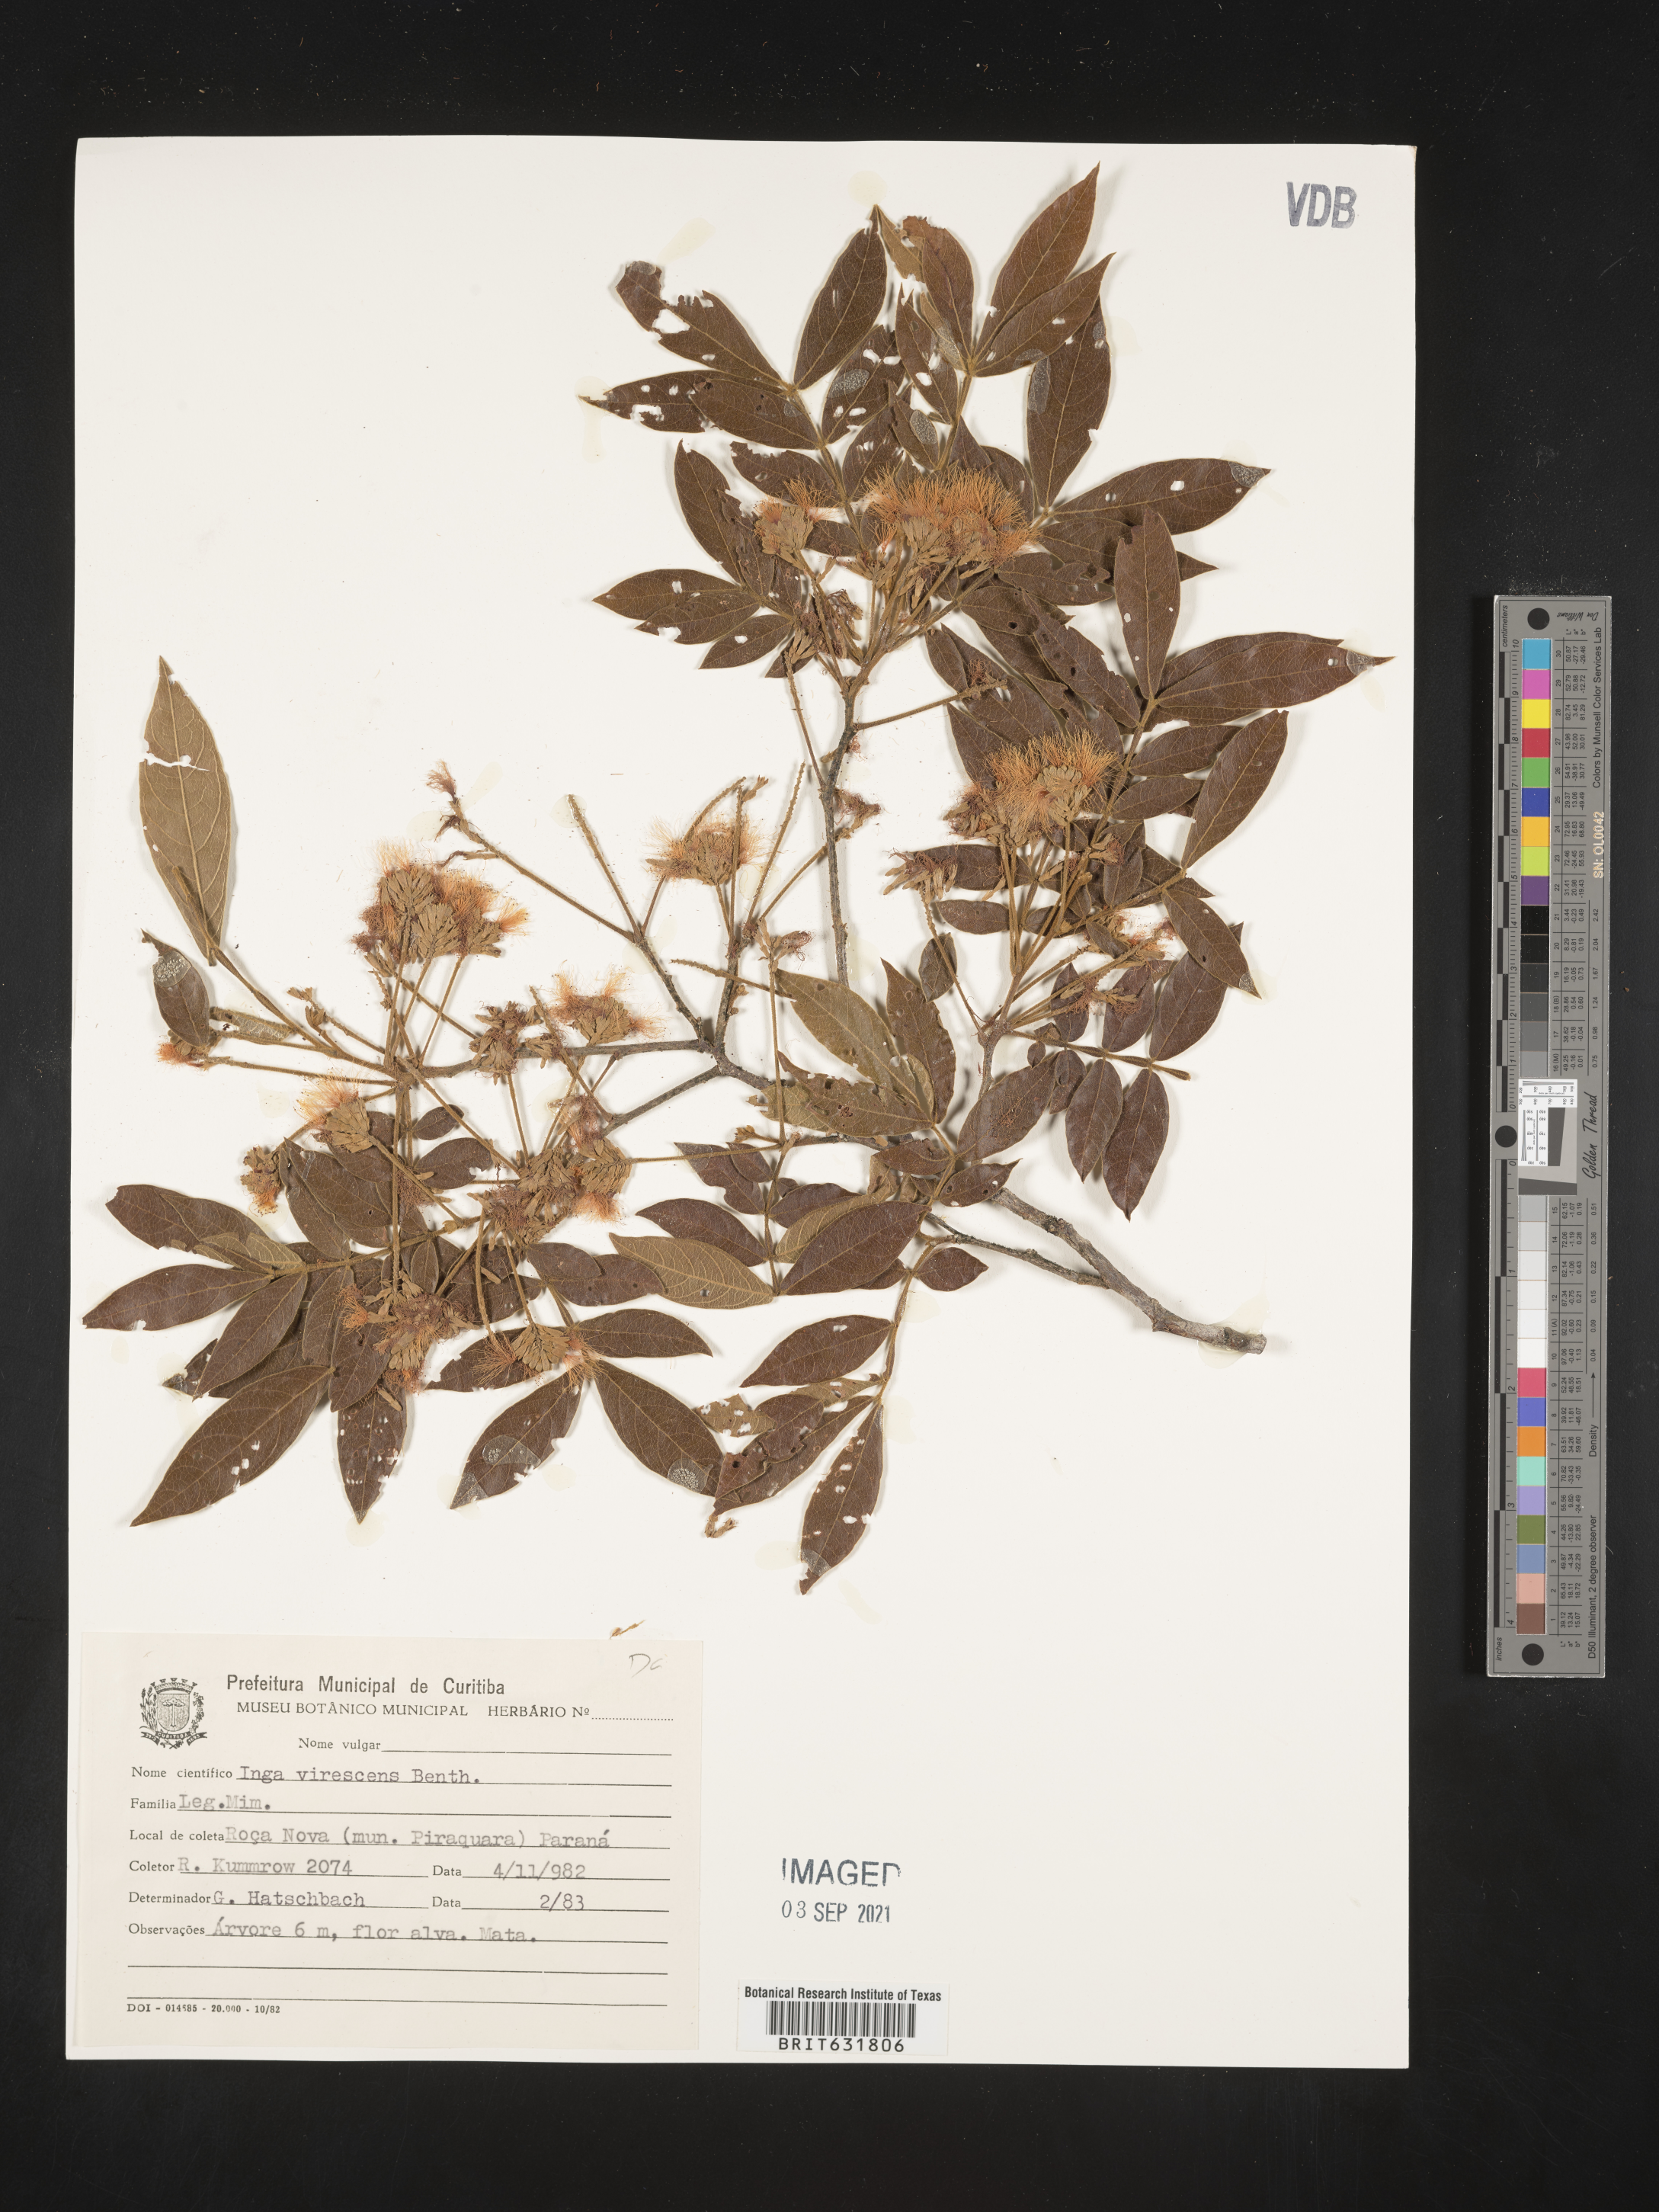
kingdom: Plantae
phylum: Tracheophyta
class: Magnoliopsida
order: Fabales
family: Fabaceae
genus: Inga
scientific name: Inga
